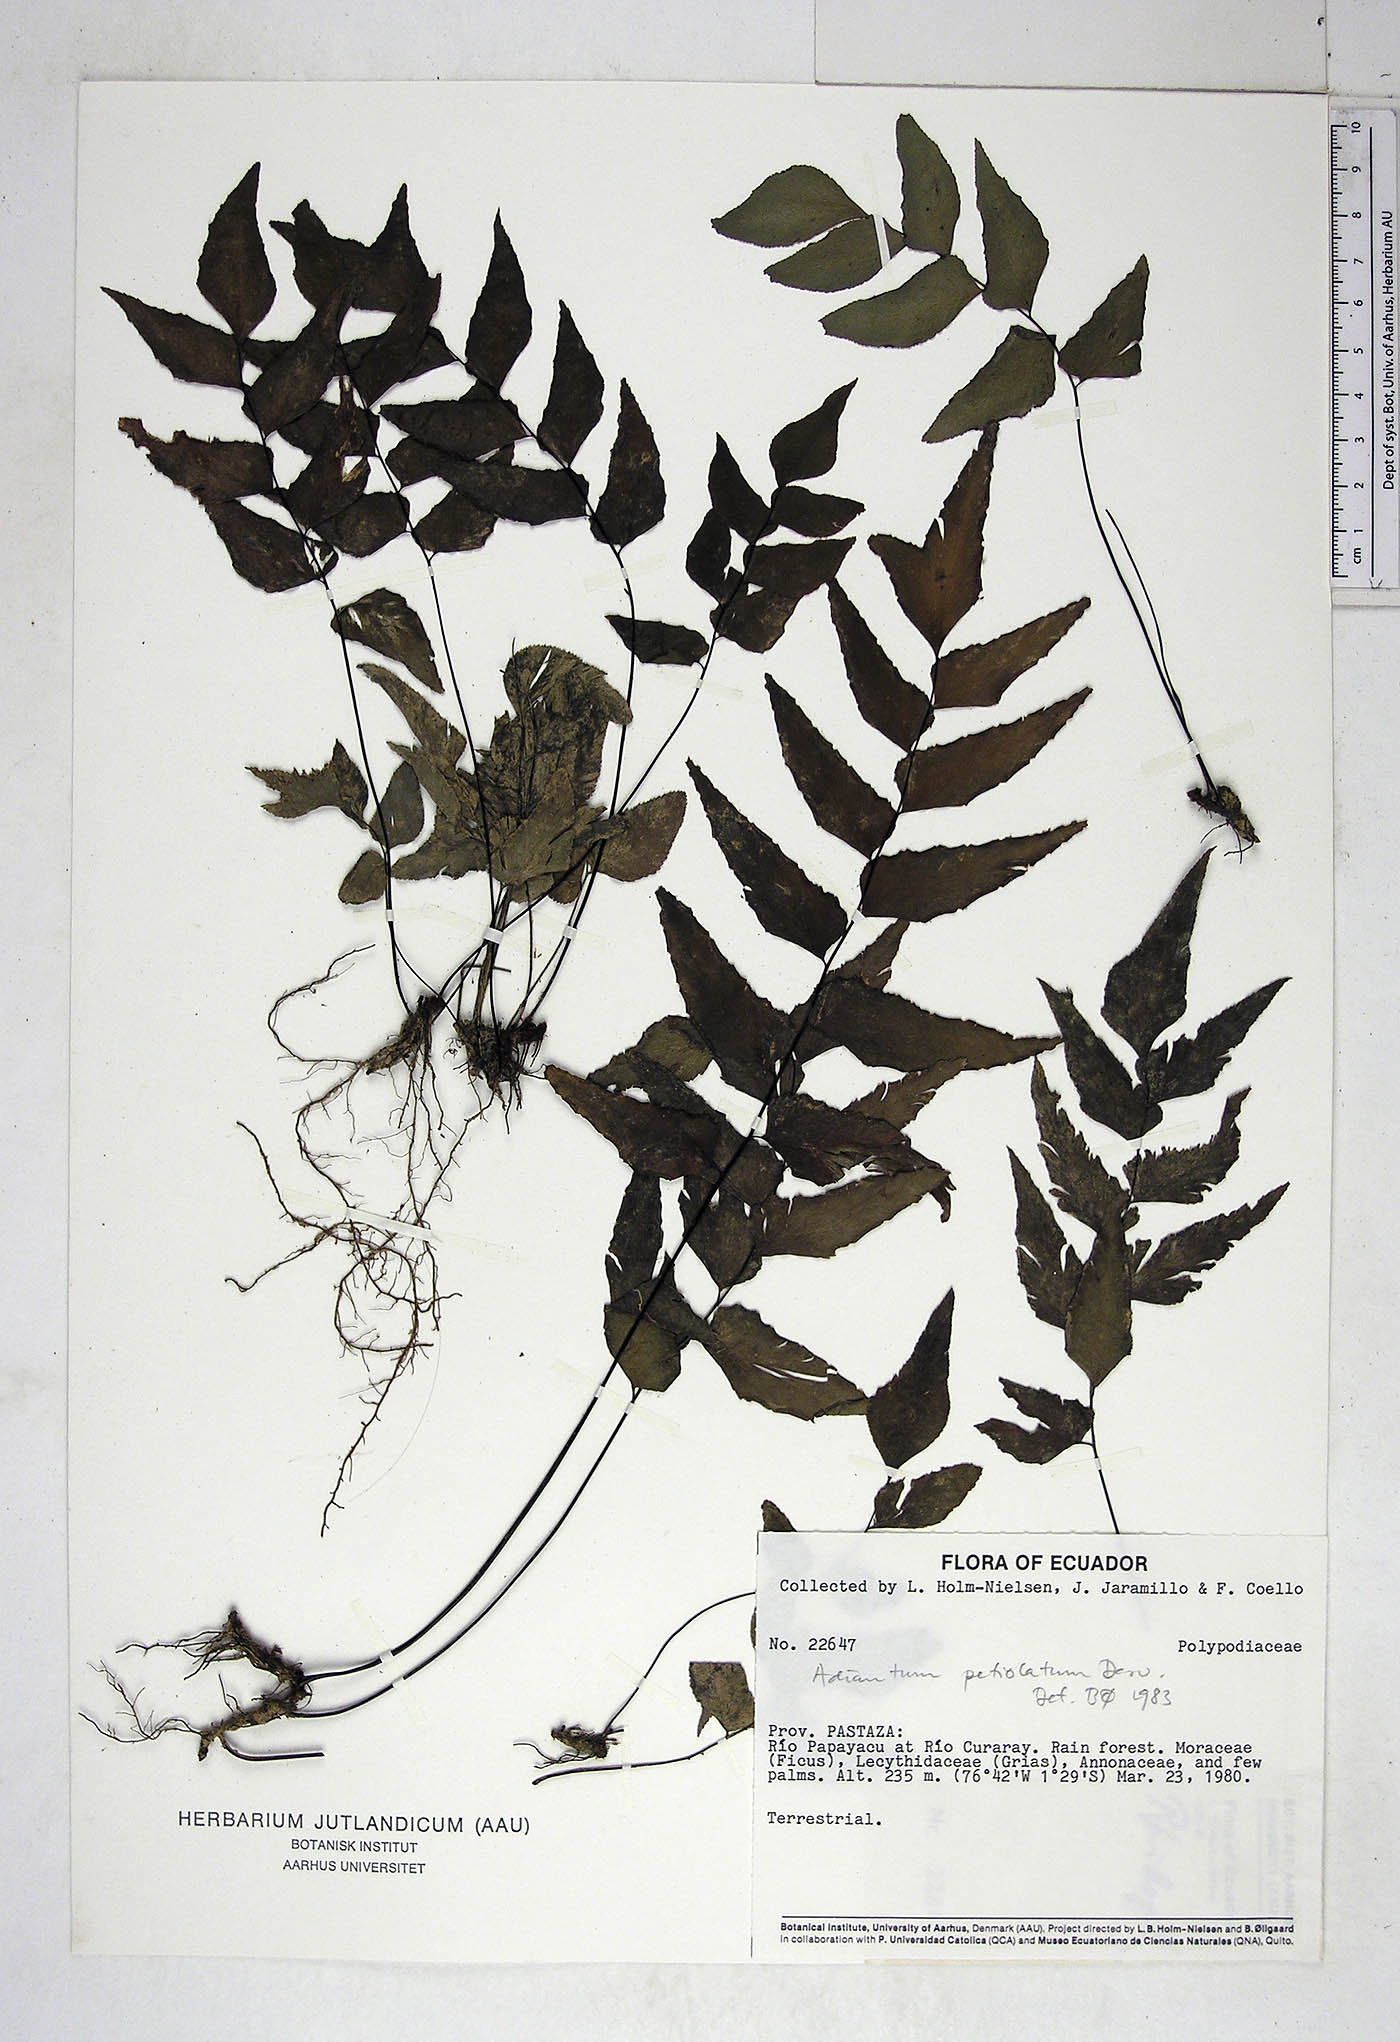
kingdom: Plantae
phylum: Tracheophyta
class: Polypodiopsida
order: Polypodiales
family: Pteridaceae
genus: Adiantum
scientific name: Adiantum petiolatum
